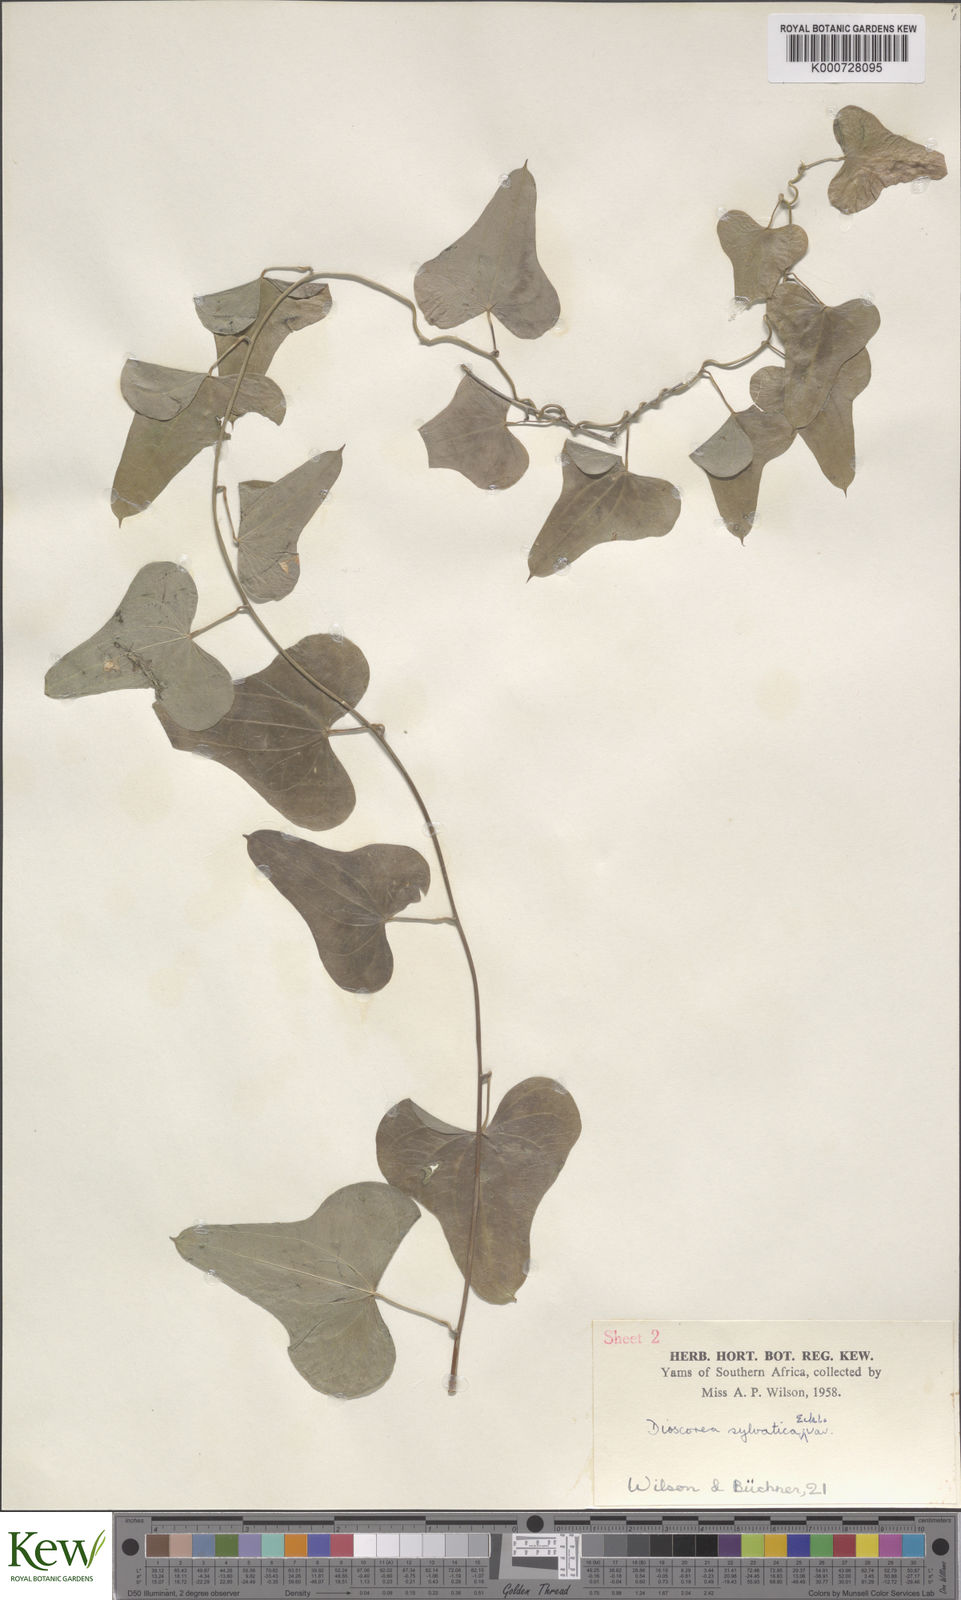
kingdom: Plantae
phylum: Tracheophyta
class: Liliopsida
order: Dioscoreales
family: Dioscoreaceae
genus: Dioscorea
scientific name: Dioscorea sylvatica
